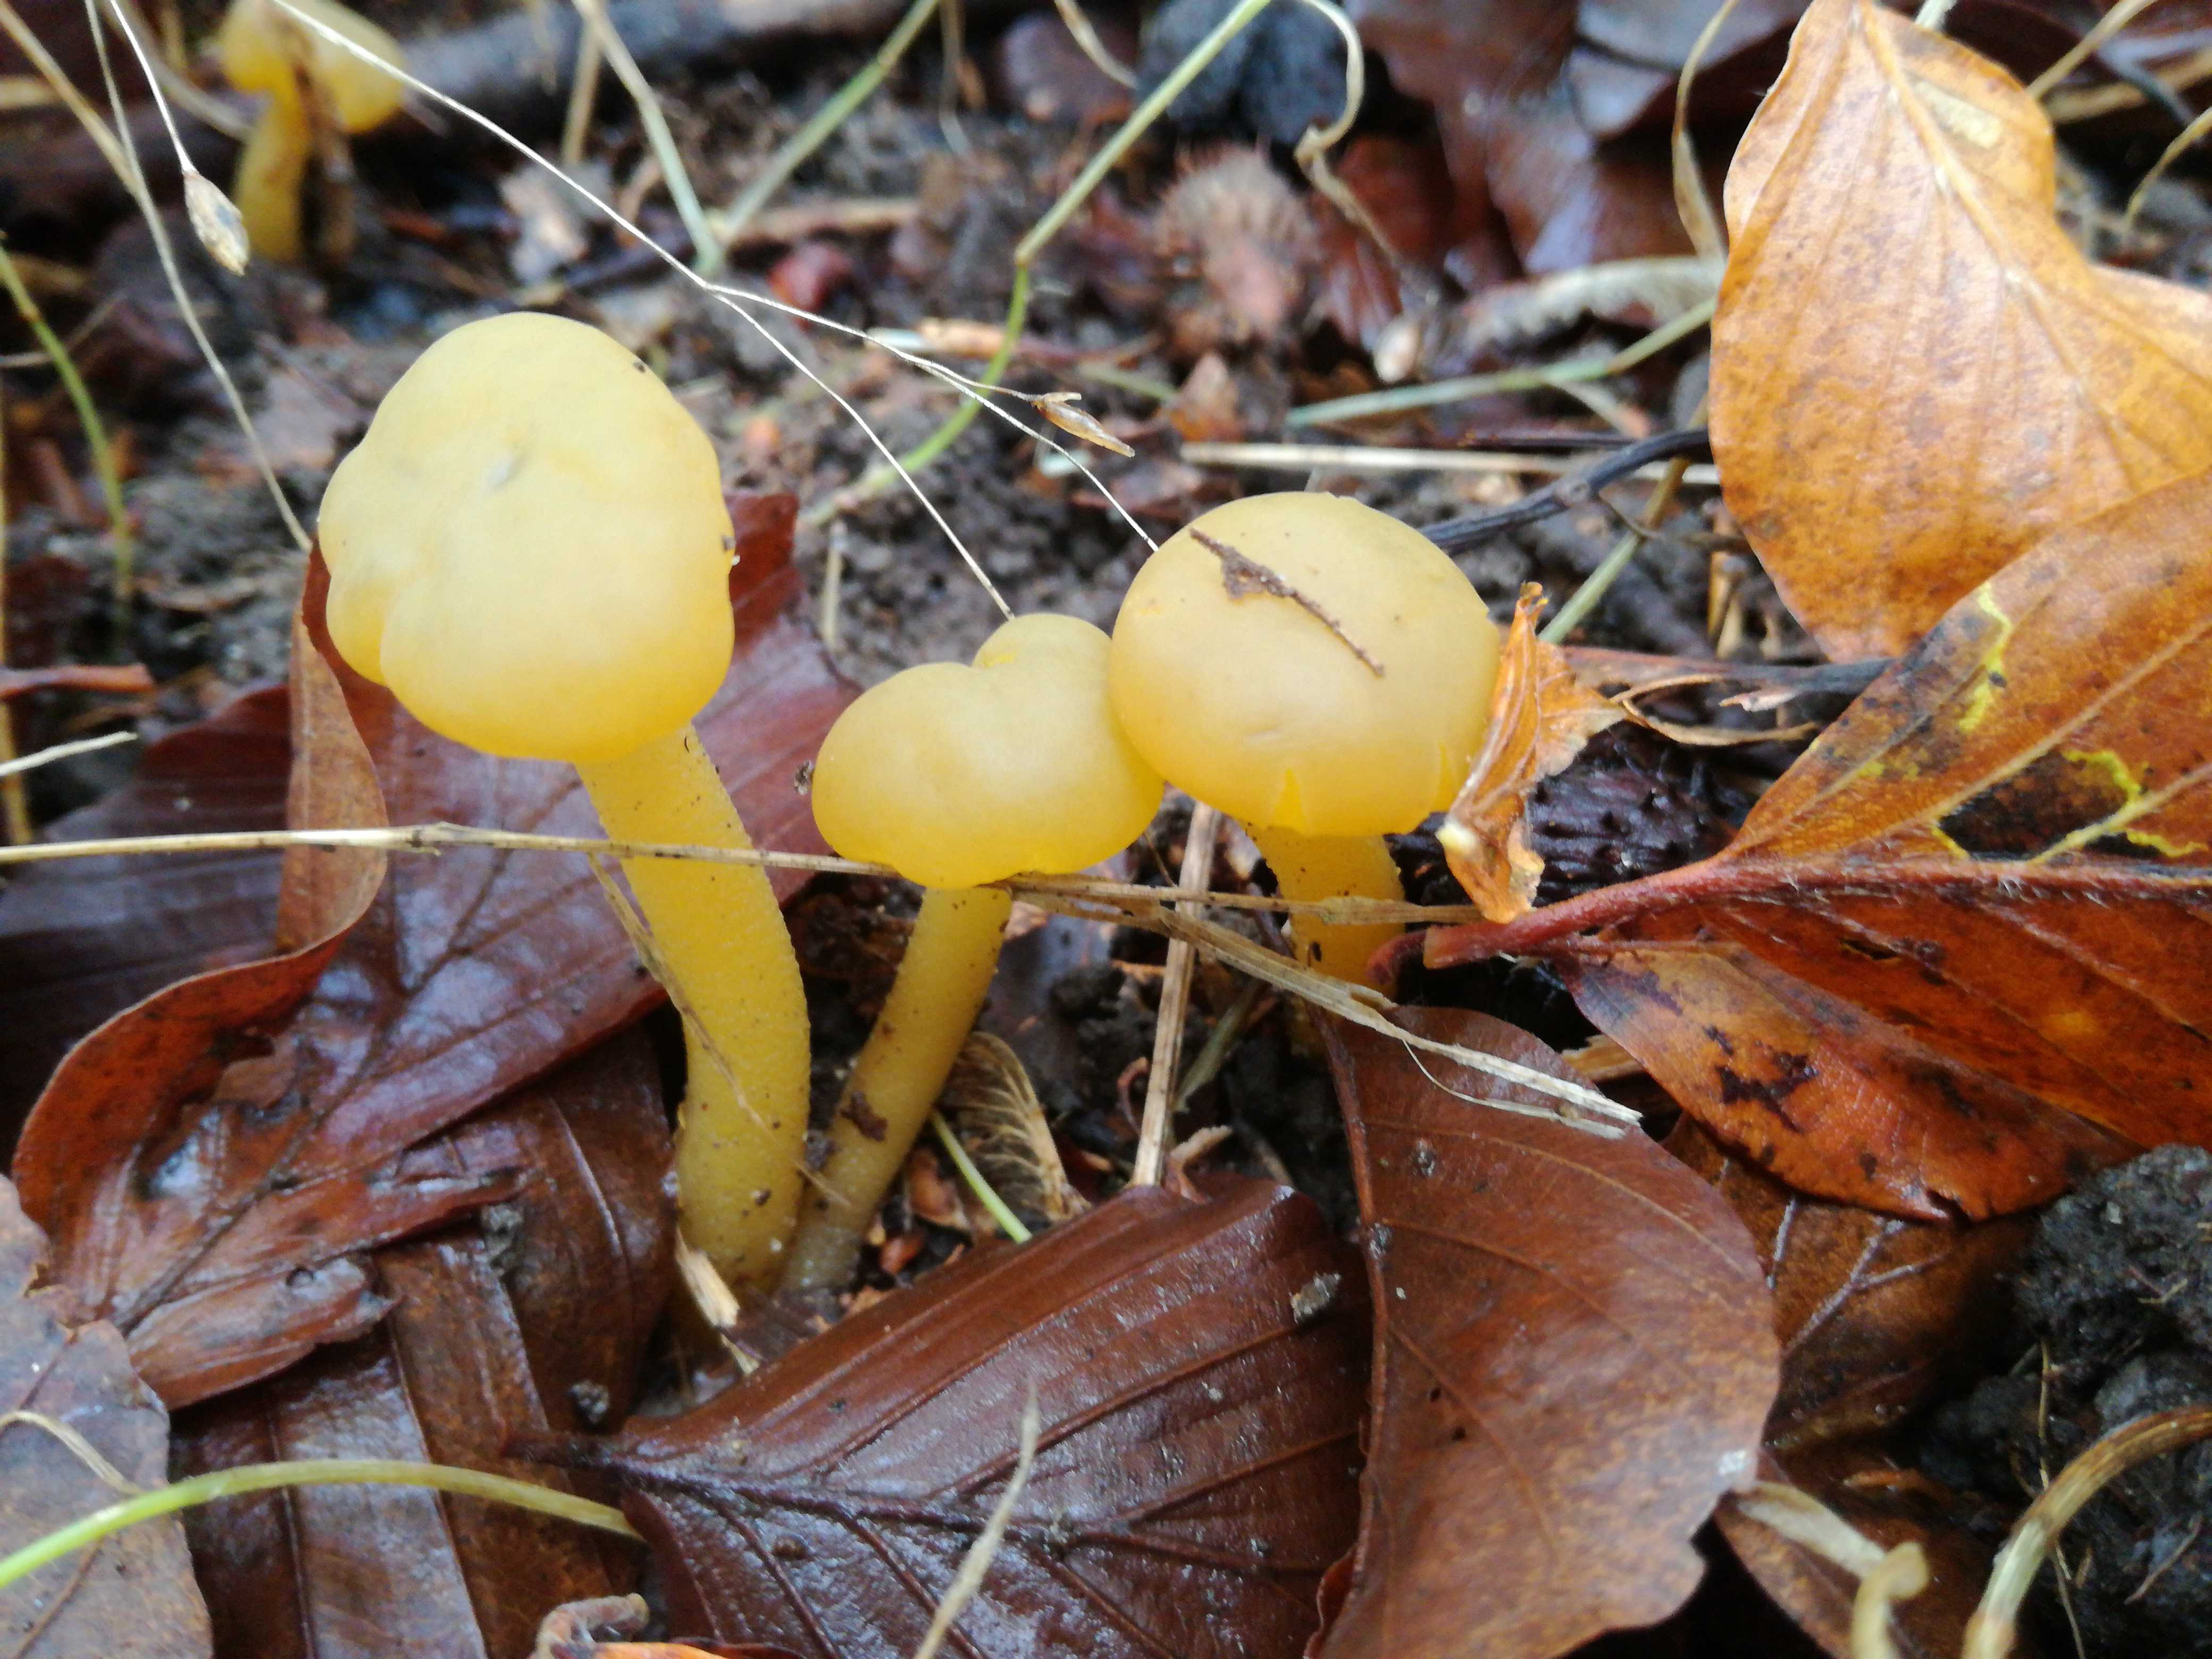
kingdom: Fungi
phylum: Ascomycota
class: Leotiomycetes
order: Leotiales
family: Leotiaceae
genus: Leotia
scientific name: Leotia lubrica
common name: ravsvamp
